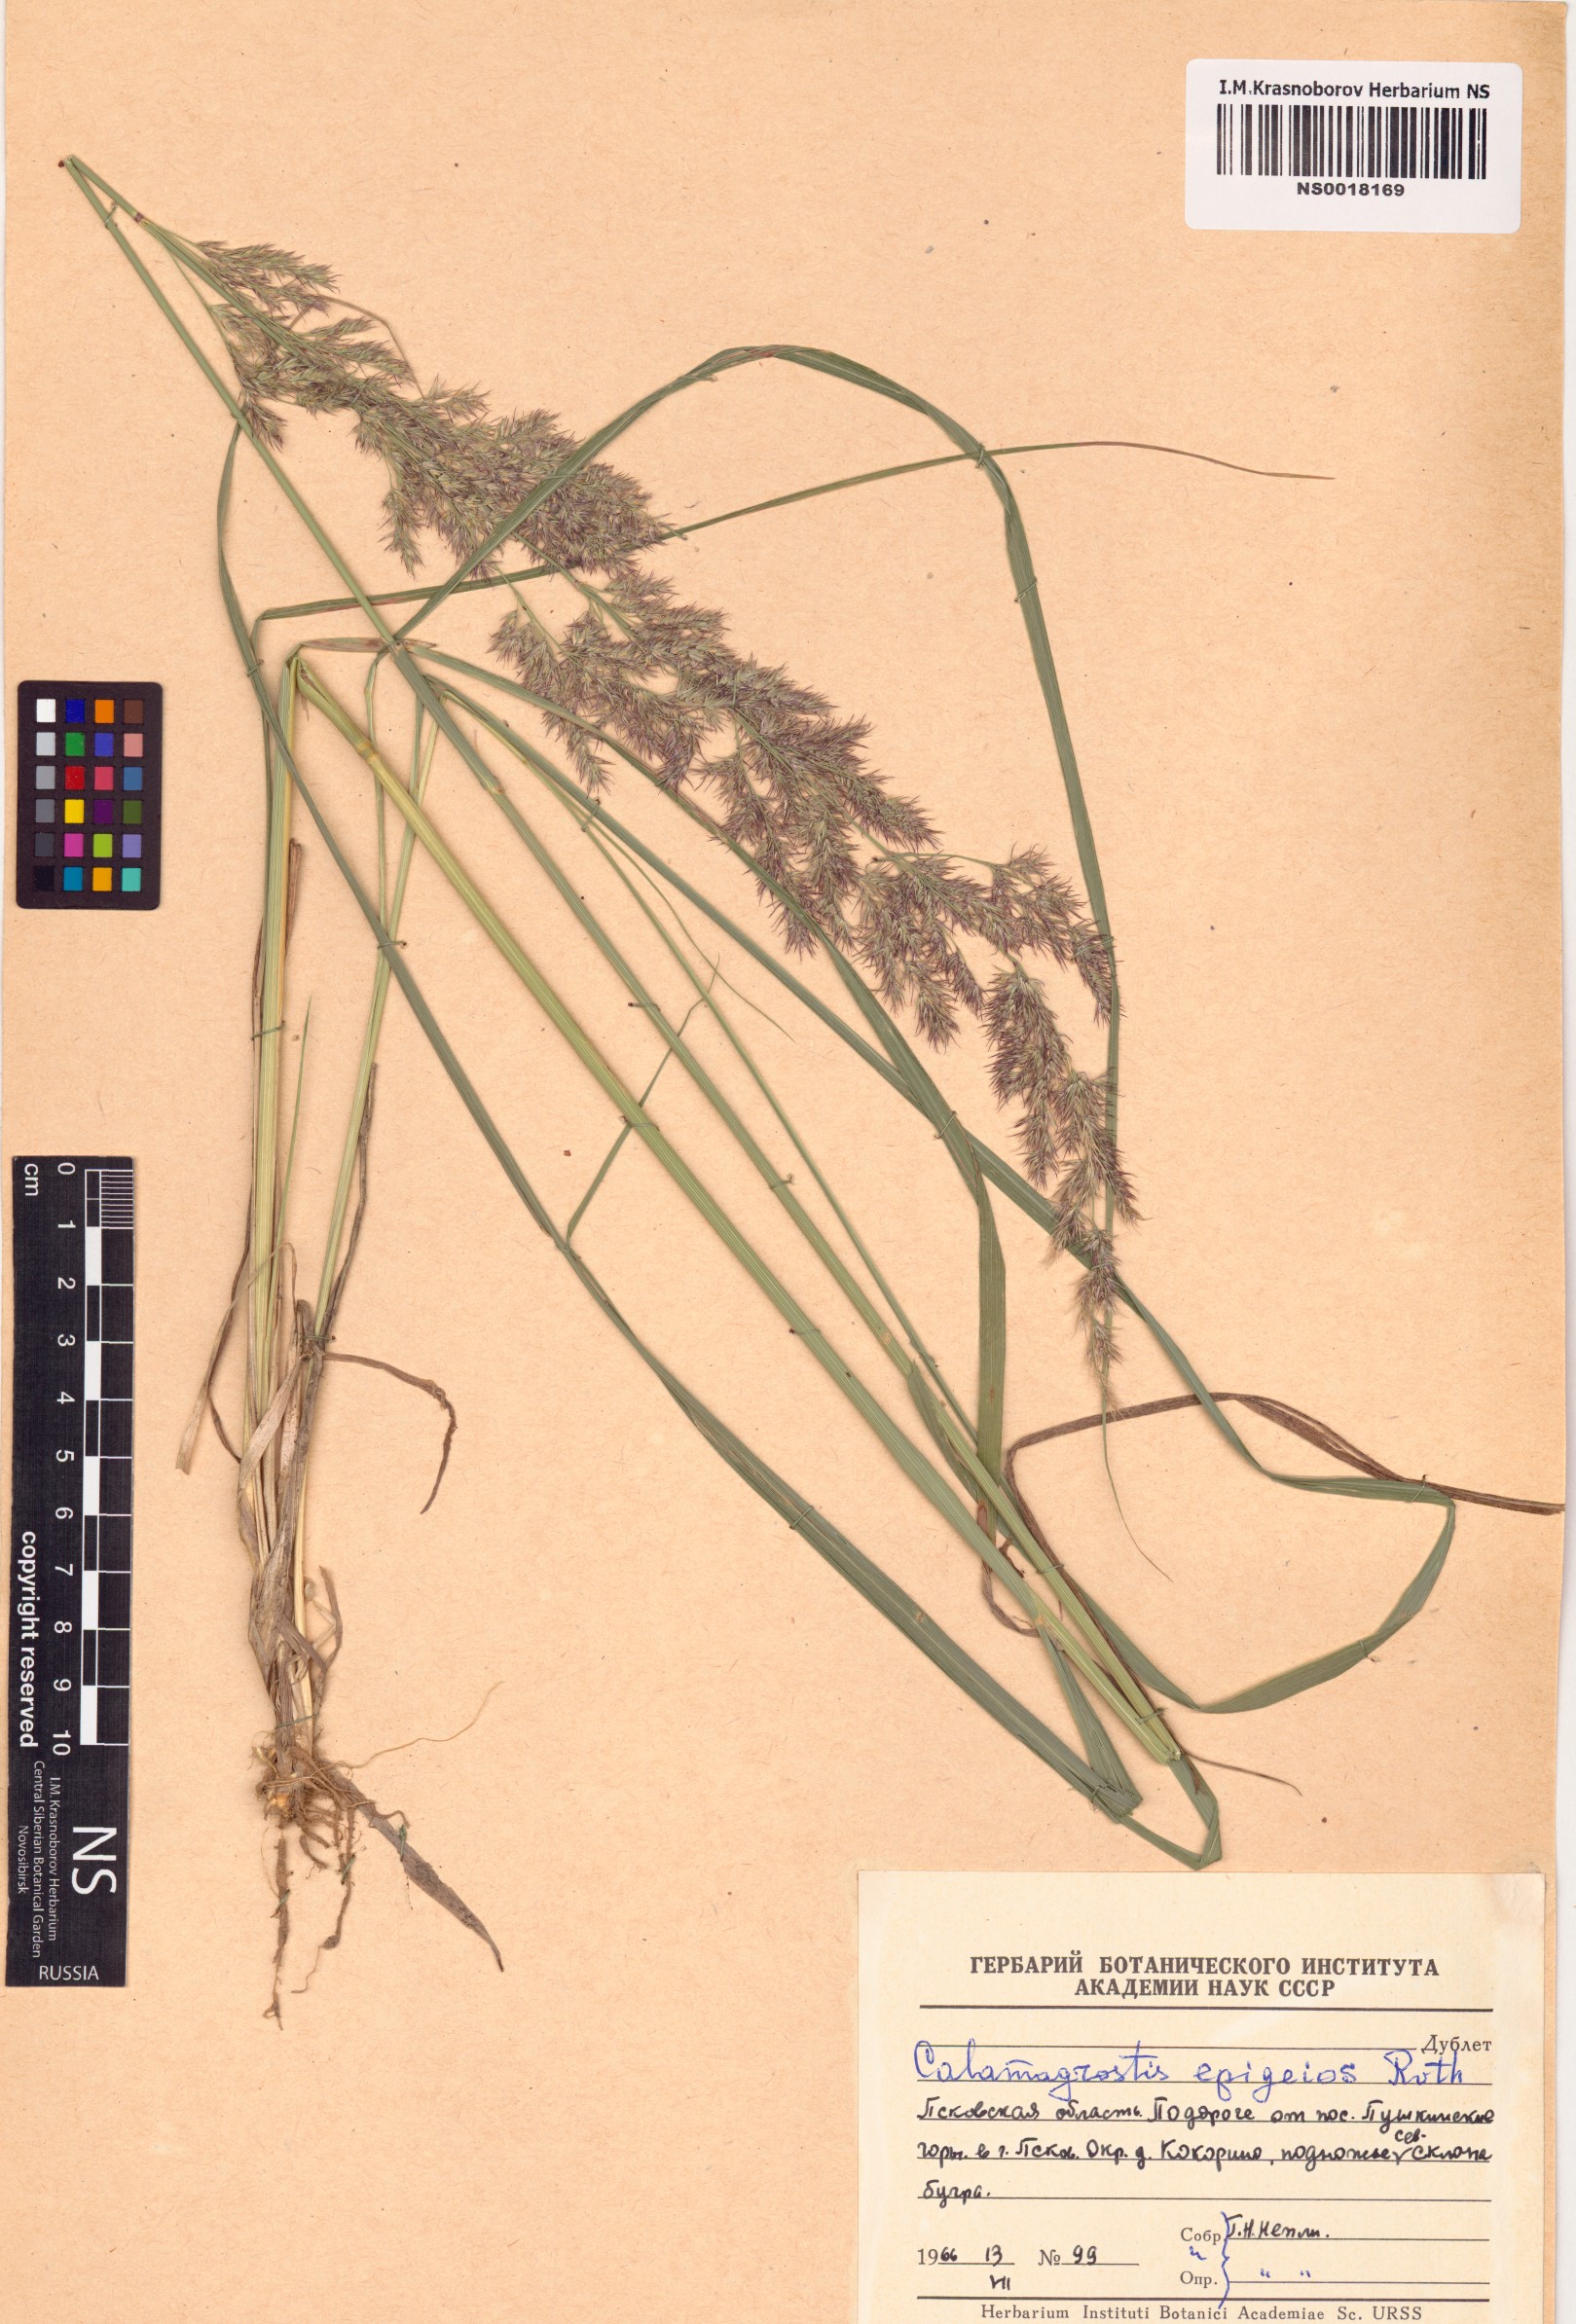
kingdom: Plantae
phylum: Tracheophyta
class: Liliopsida
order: Poales
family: Poaceae
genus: Calamagrostis
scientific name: Calamagrostis epigejos
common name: Wood small-reed
